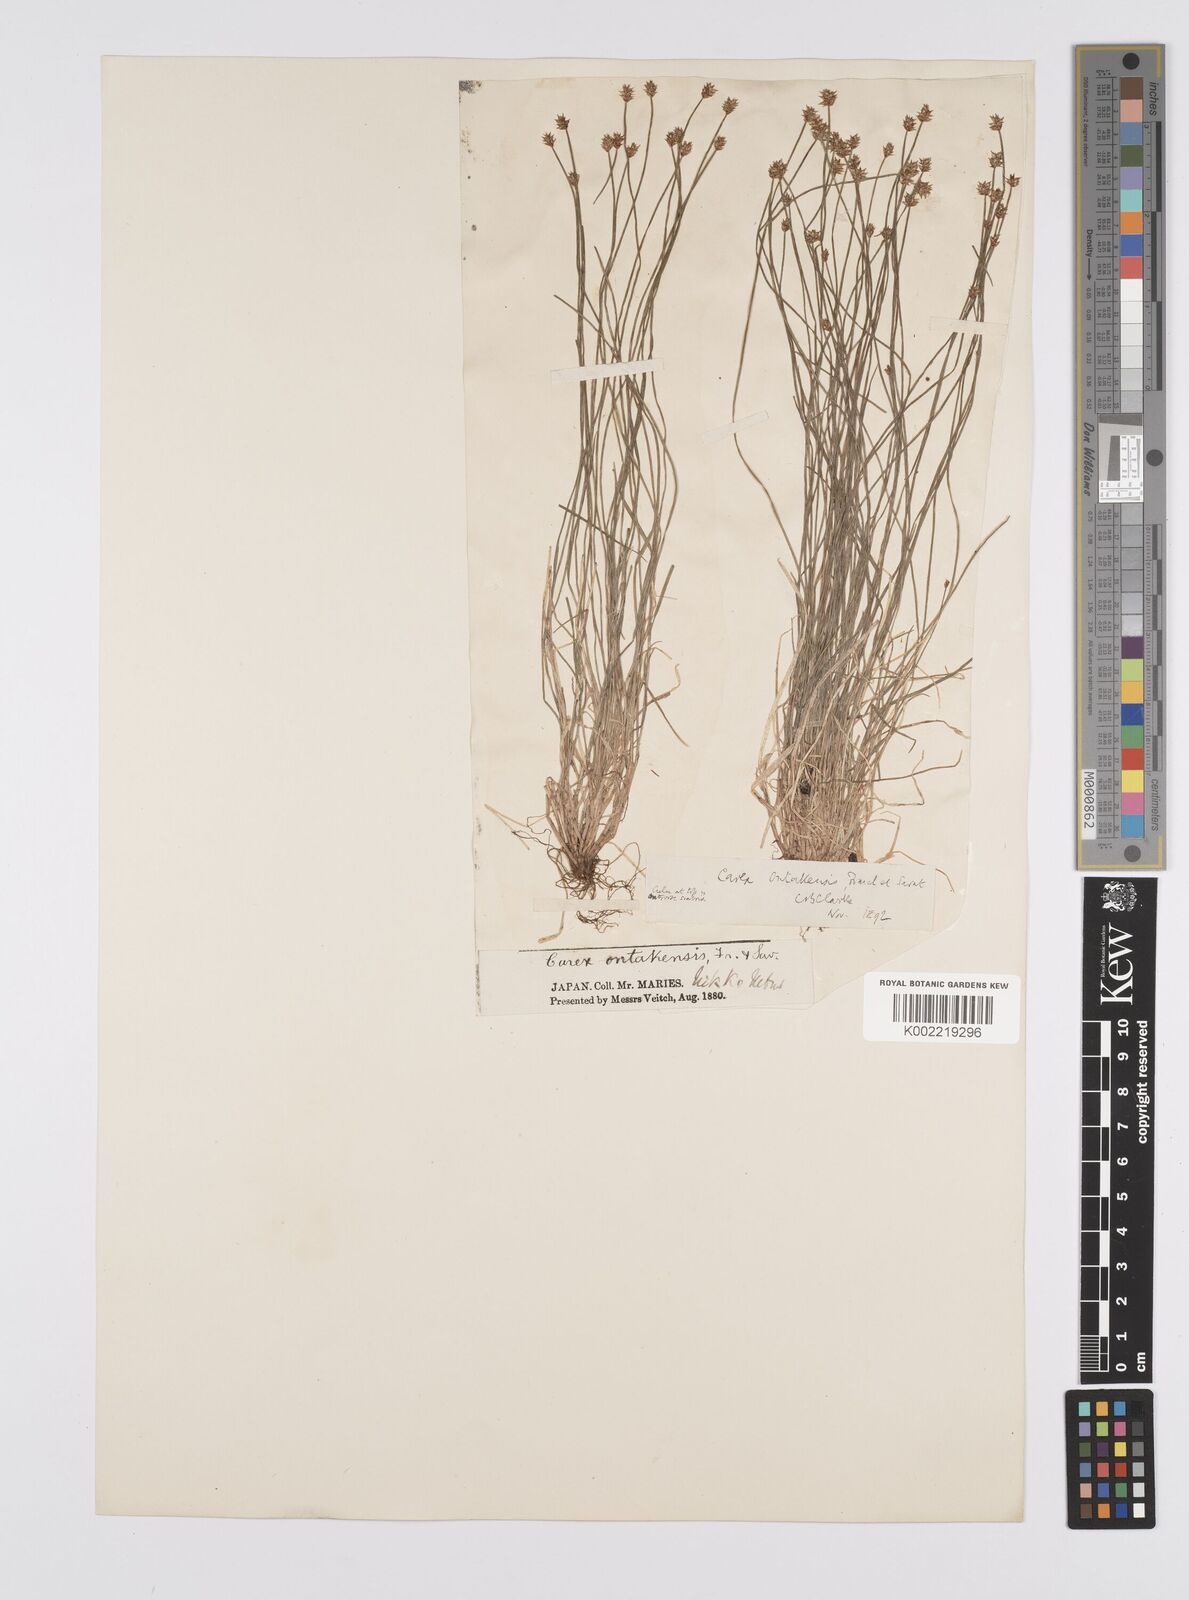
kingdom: Plantae
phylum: Tracheophyta
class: Liliopsida
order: Poales
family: Cyperaceae
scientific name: Cyperaceae
